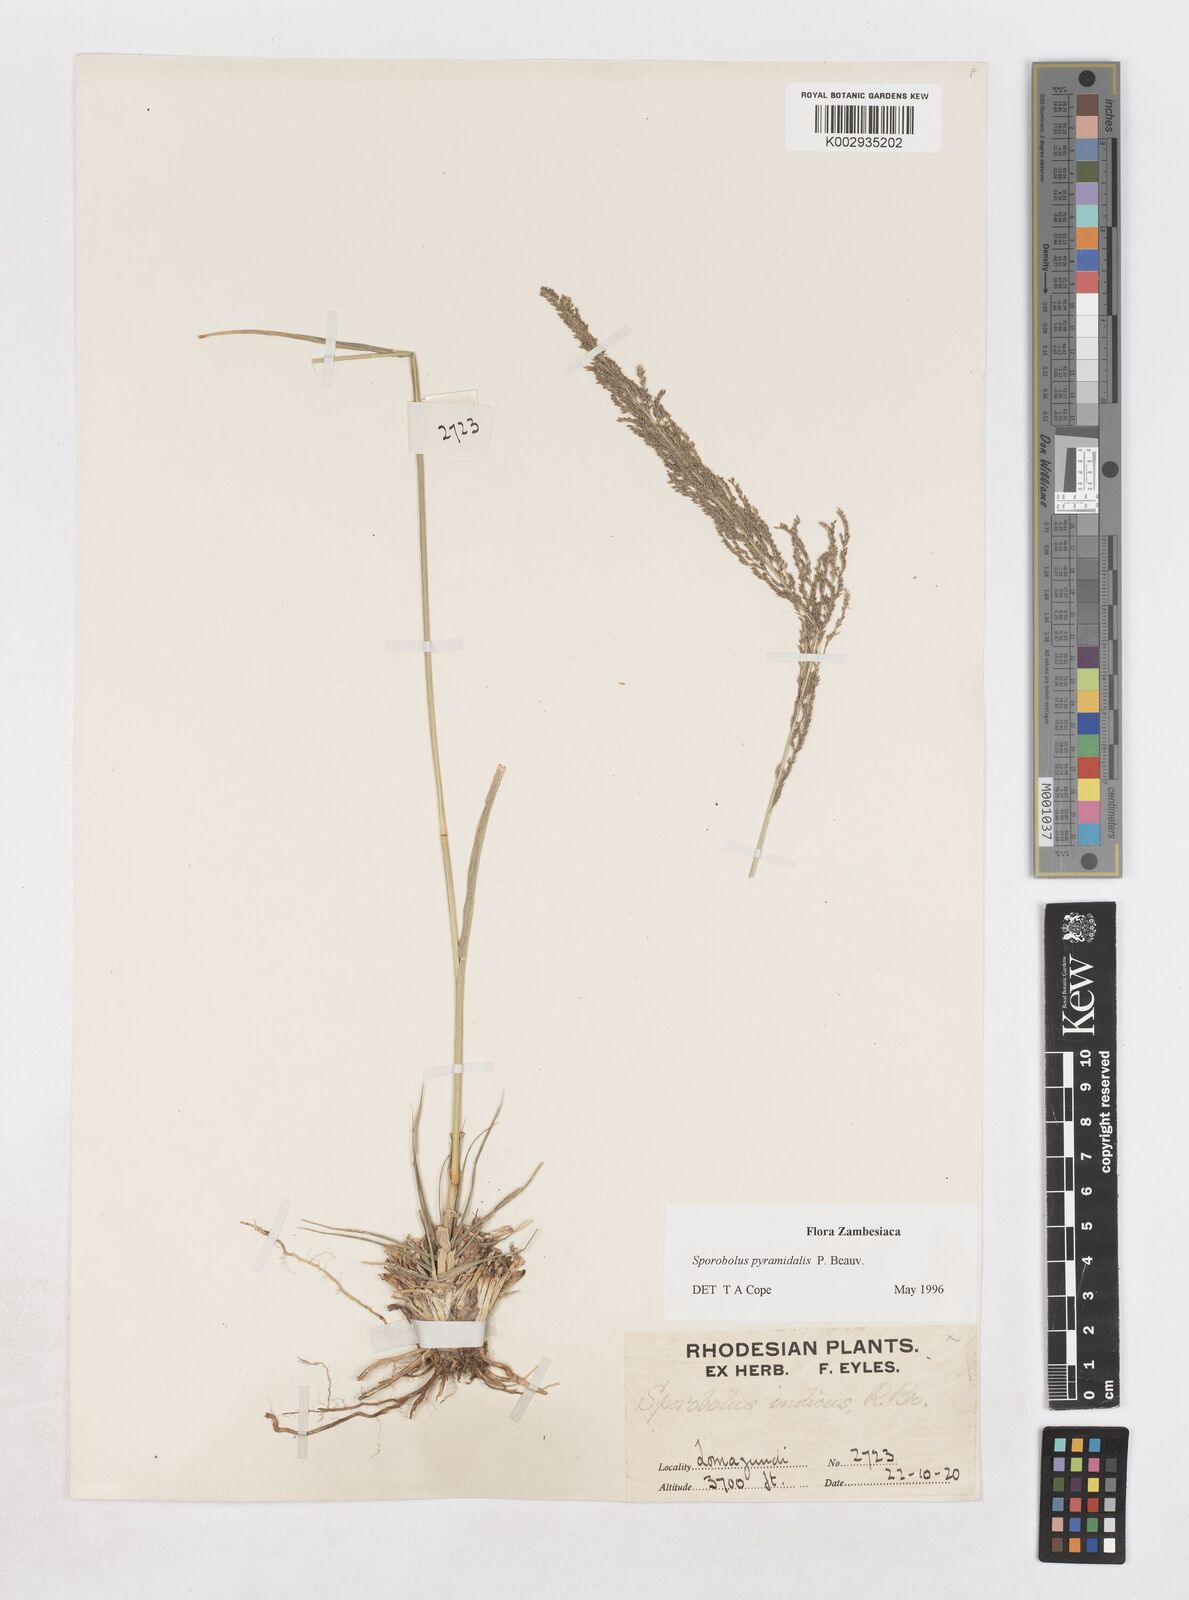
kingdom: Plantae
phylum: Tracheophyta
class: Liliopsida
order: Poales
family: Poaceae
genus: Sporobolus
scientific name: Sporobolus pyramidalis
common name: West indian dropseed
